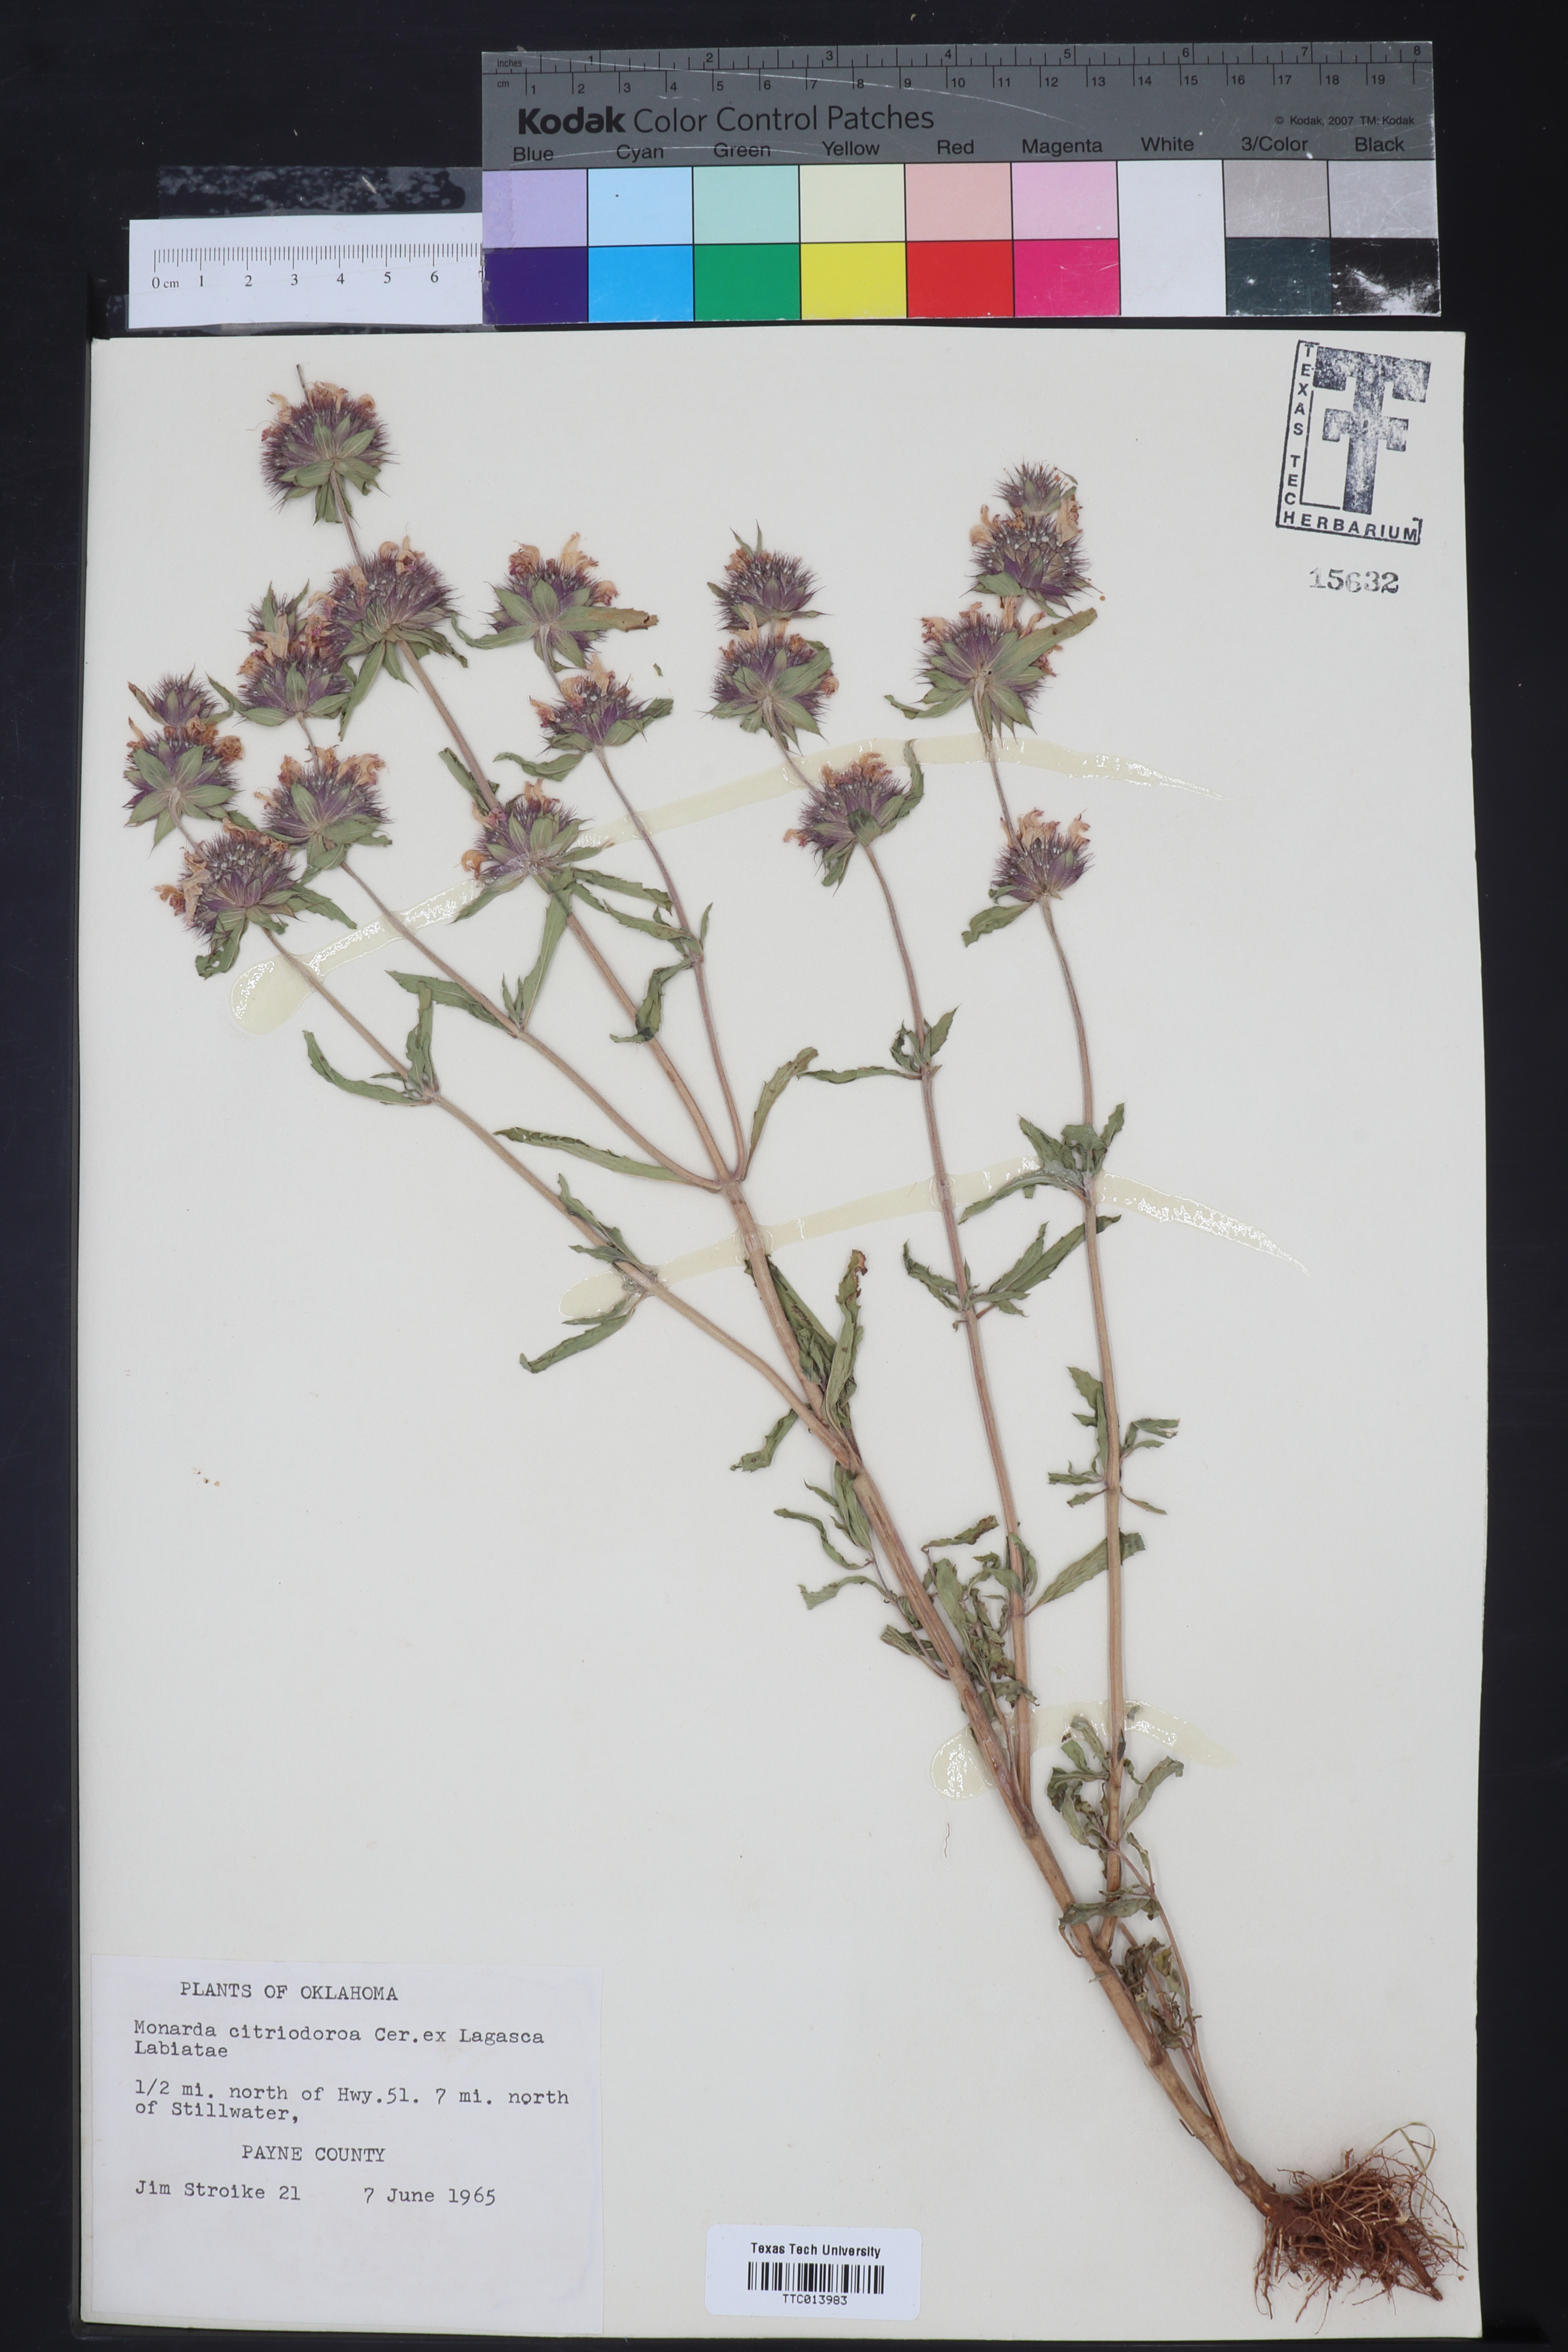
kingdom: Plantae
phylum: Tracheophyta
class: Magnoliopsida
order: Lamiales
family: Lamiaceae
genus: Monarda
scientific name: Monarda citriodora
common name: Lemon beebalm
